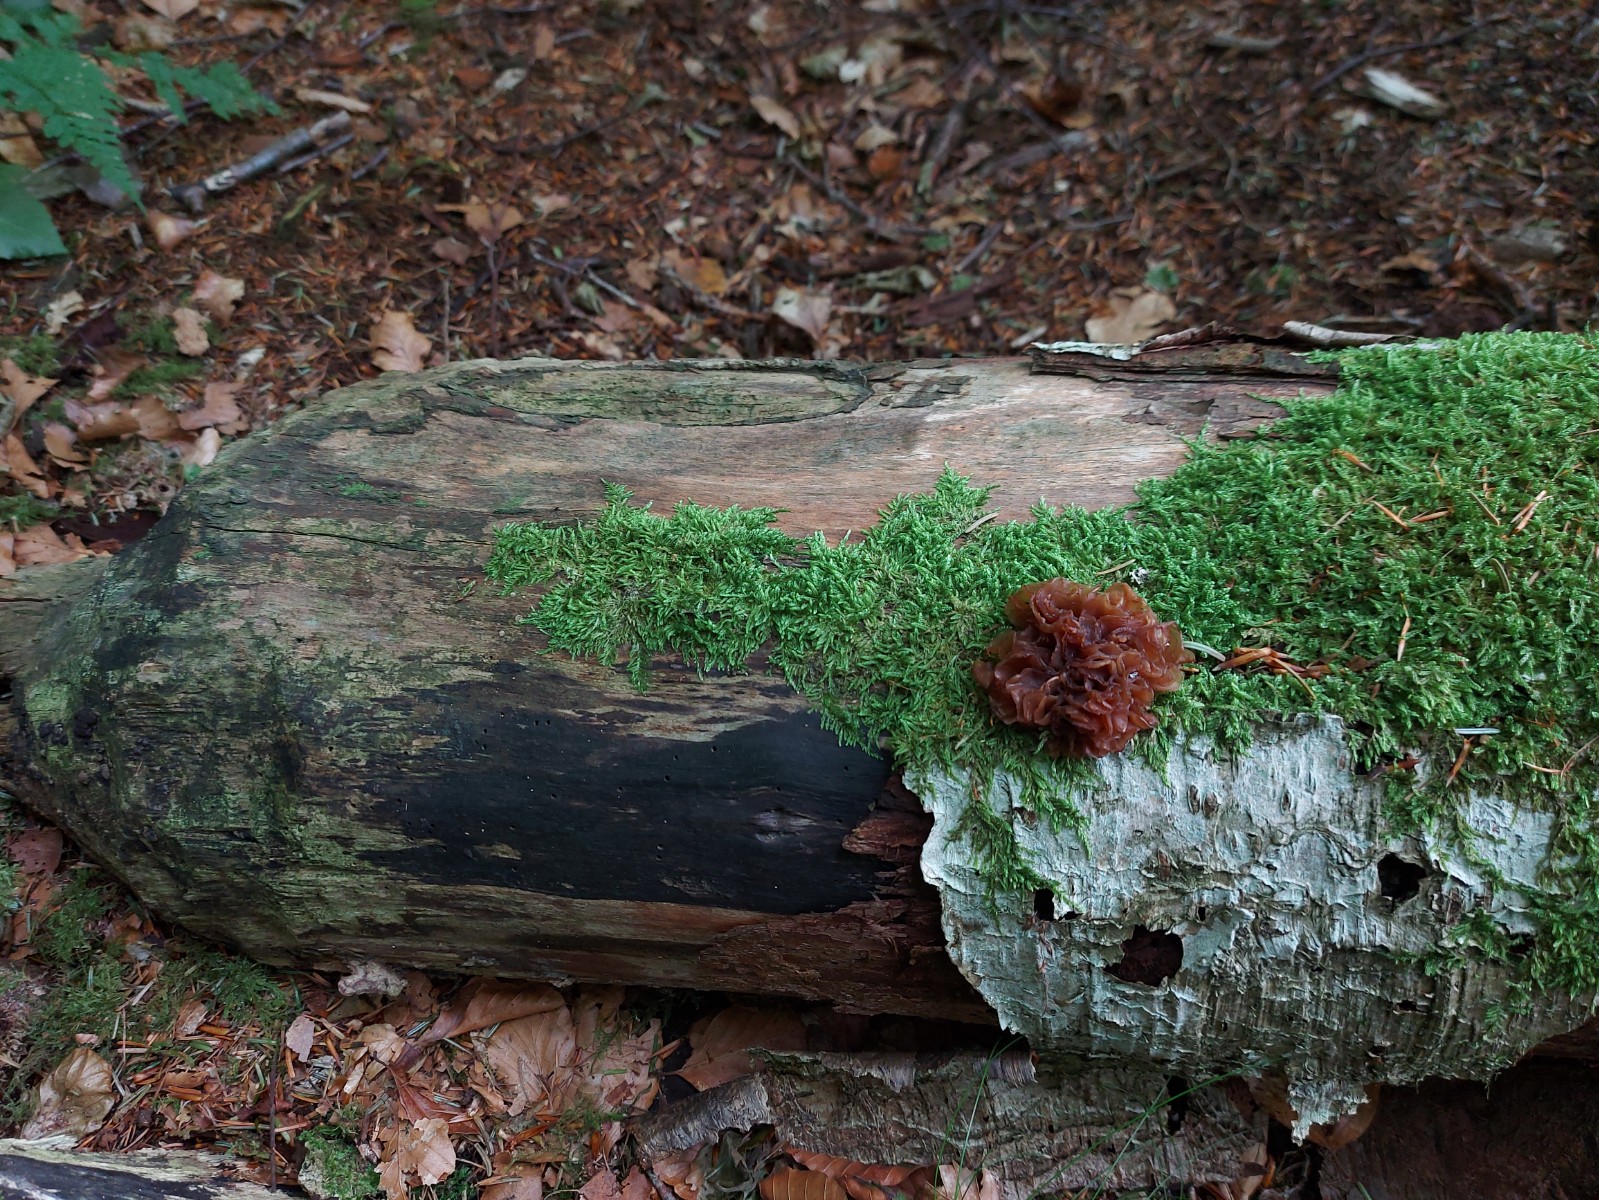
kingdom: Fungi
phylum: Basidiomycota
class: Tremellomycetes
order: Tremellales
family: Tremellaceae
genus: Phaeotremella
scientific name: Phaeotremella frondosa
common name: kæmpe-bævresvamp
